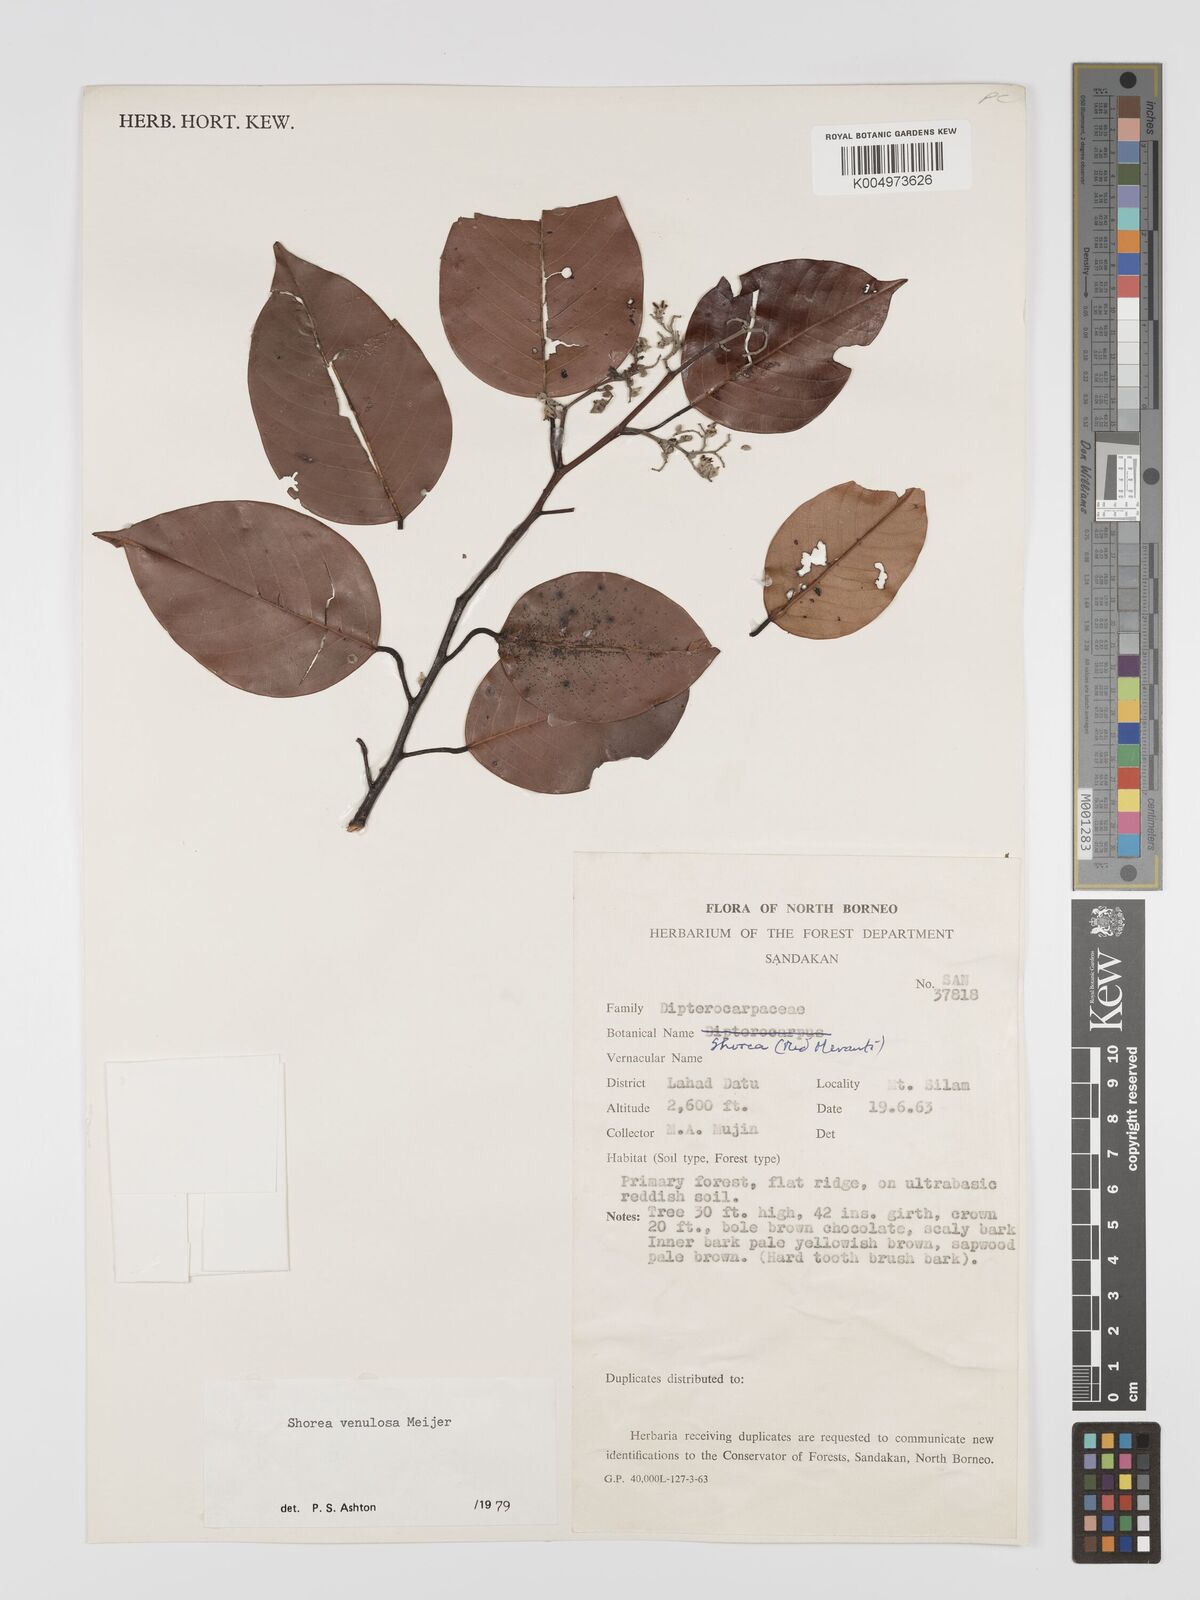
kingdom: Plantae
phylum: Tracheophyta
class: Magnoliopsida
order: Malvales
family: Dipterocarpaceae
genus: Shorea
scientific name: Shorea venulosa
